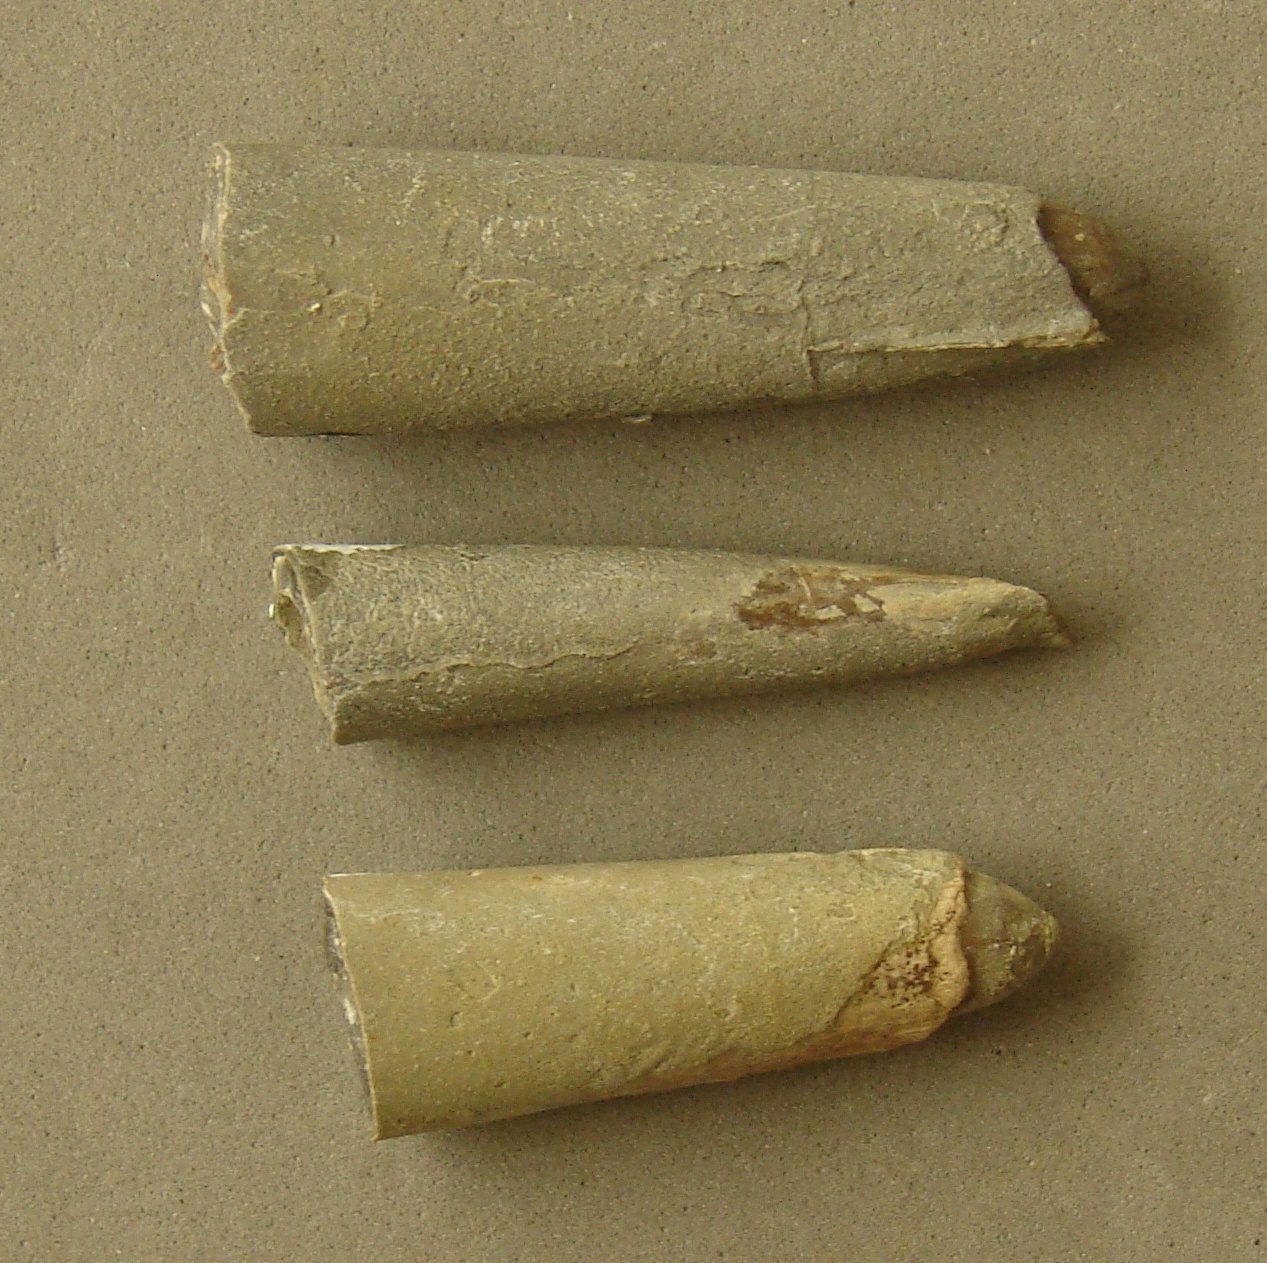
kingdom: Animalia
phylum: Mollusca
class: Cephalopoda
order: Belemnitida
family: Megateuthididae
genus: Dactyloteuthis
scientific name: Dactyloteuthis semistriata
